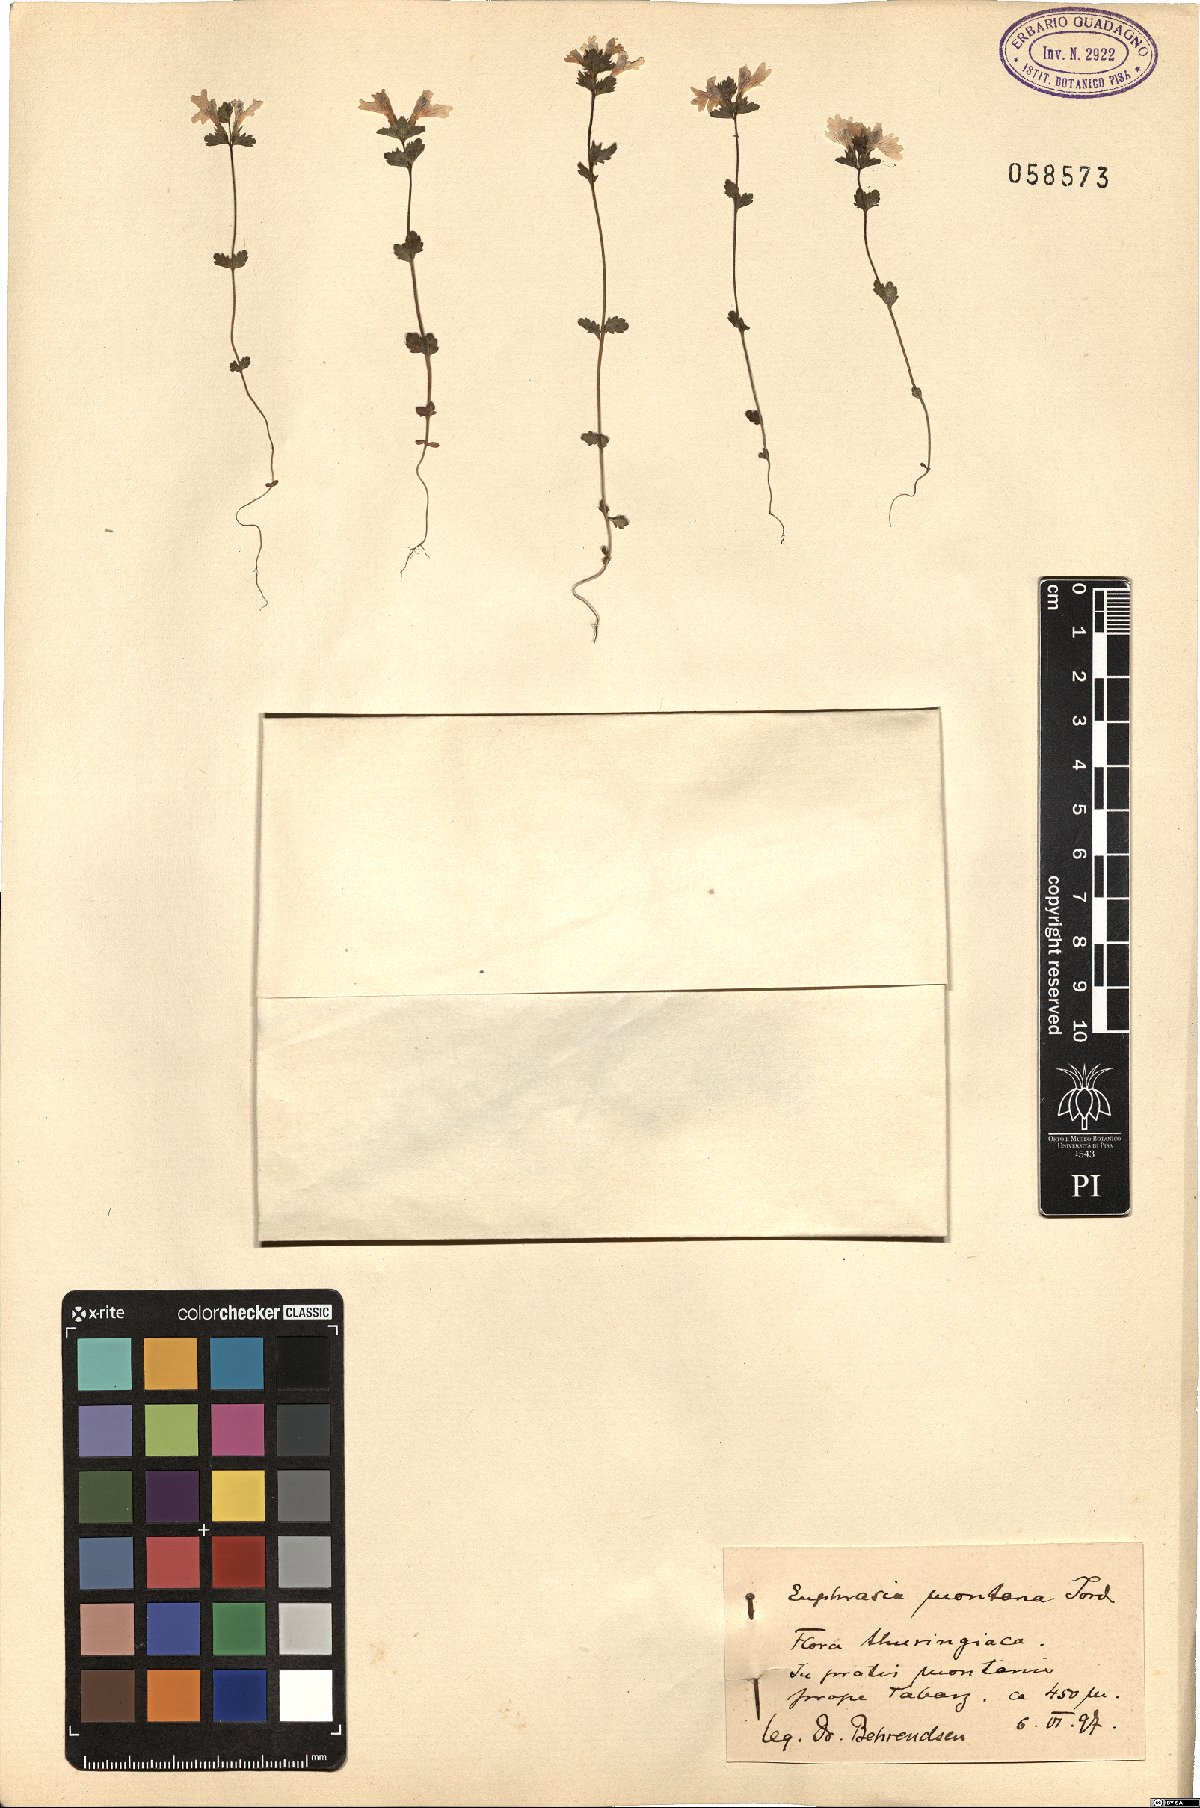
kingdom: Plantae
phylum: Tracheophyta
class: Magnoliopsida
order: Lamiales
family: Orobanchaceae
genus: Euphrasia
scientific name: Euphrasia officinalis
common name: Eyebright
